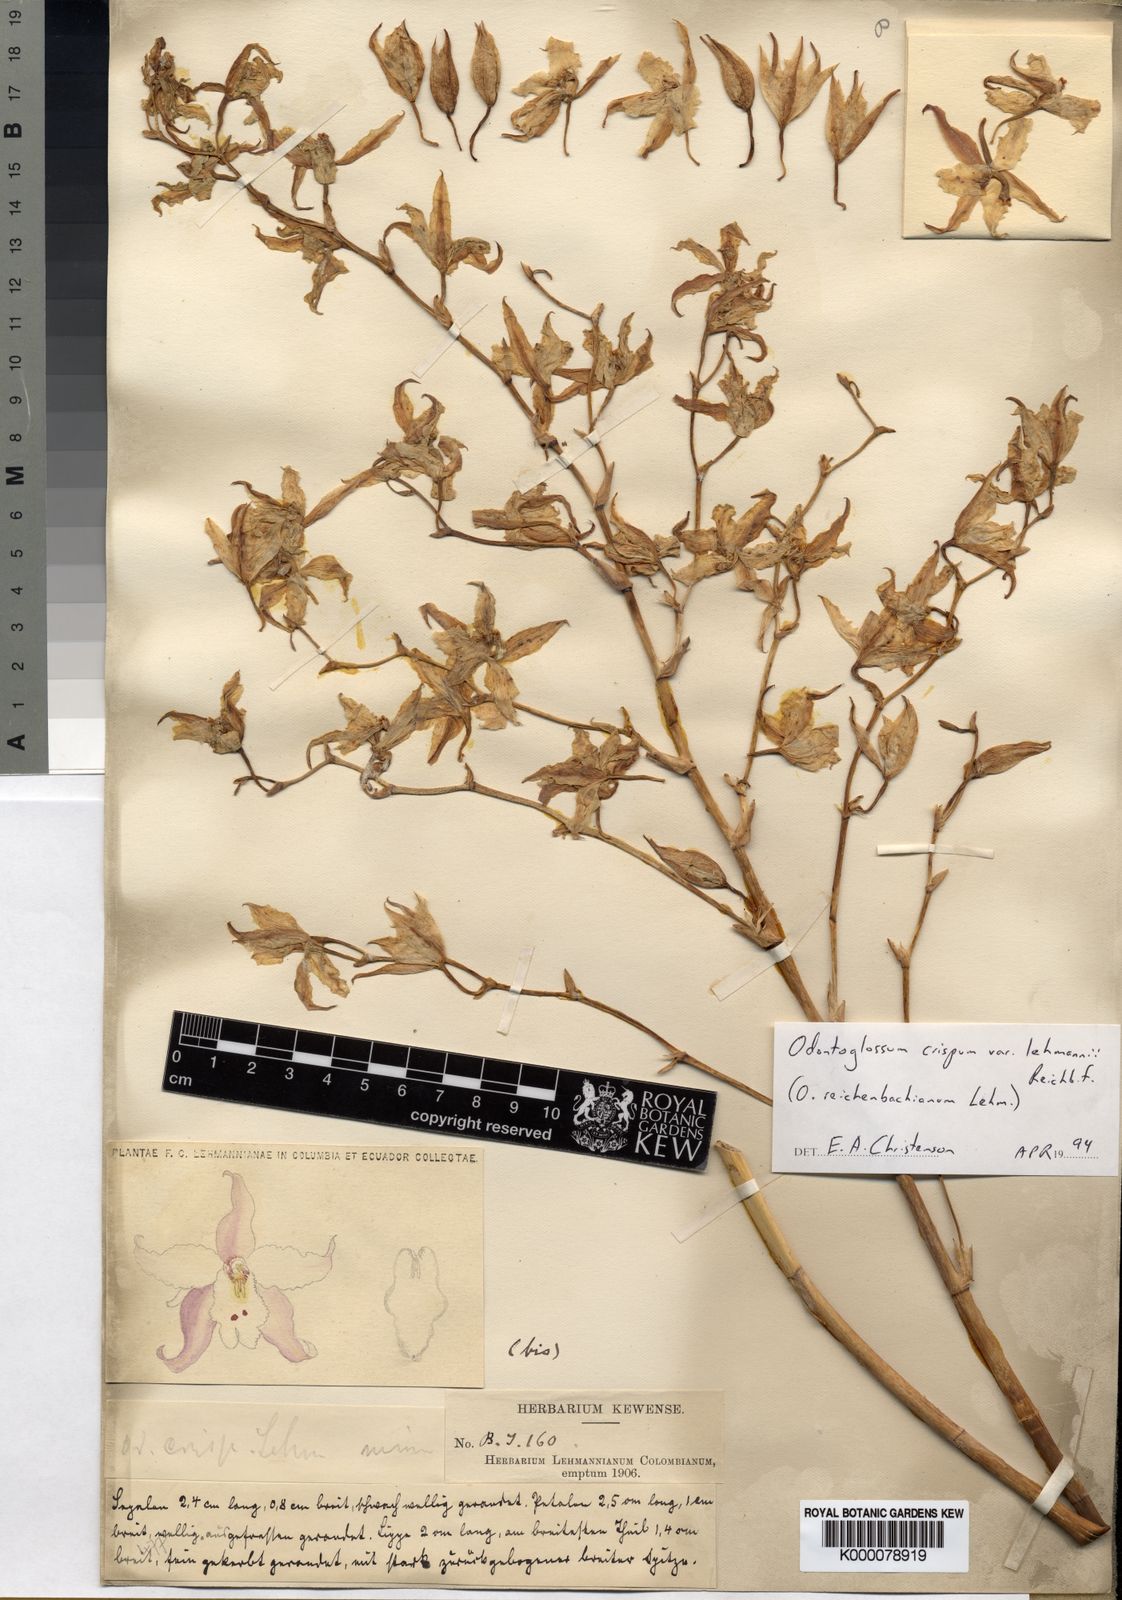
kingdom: Plantae
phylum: Tracheophyta
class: Liliopsida
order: Asparagales
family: Orchidaceae
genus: Oncidium
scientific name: Oncidium
